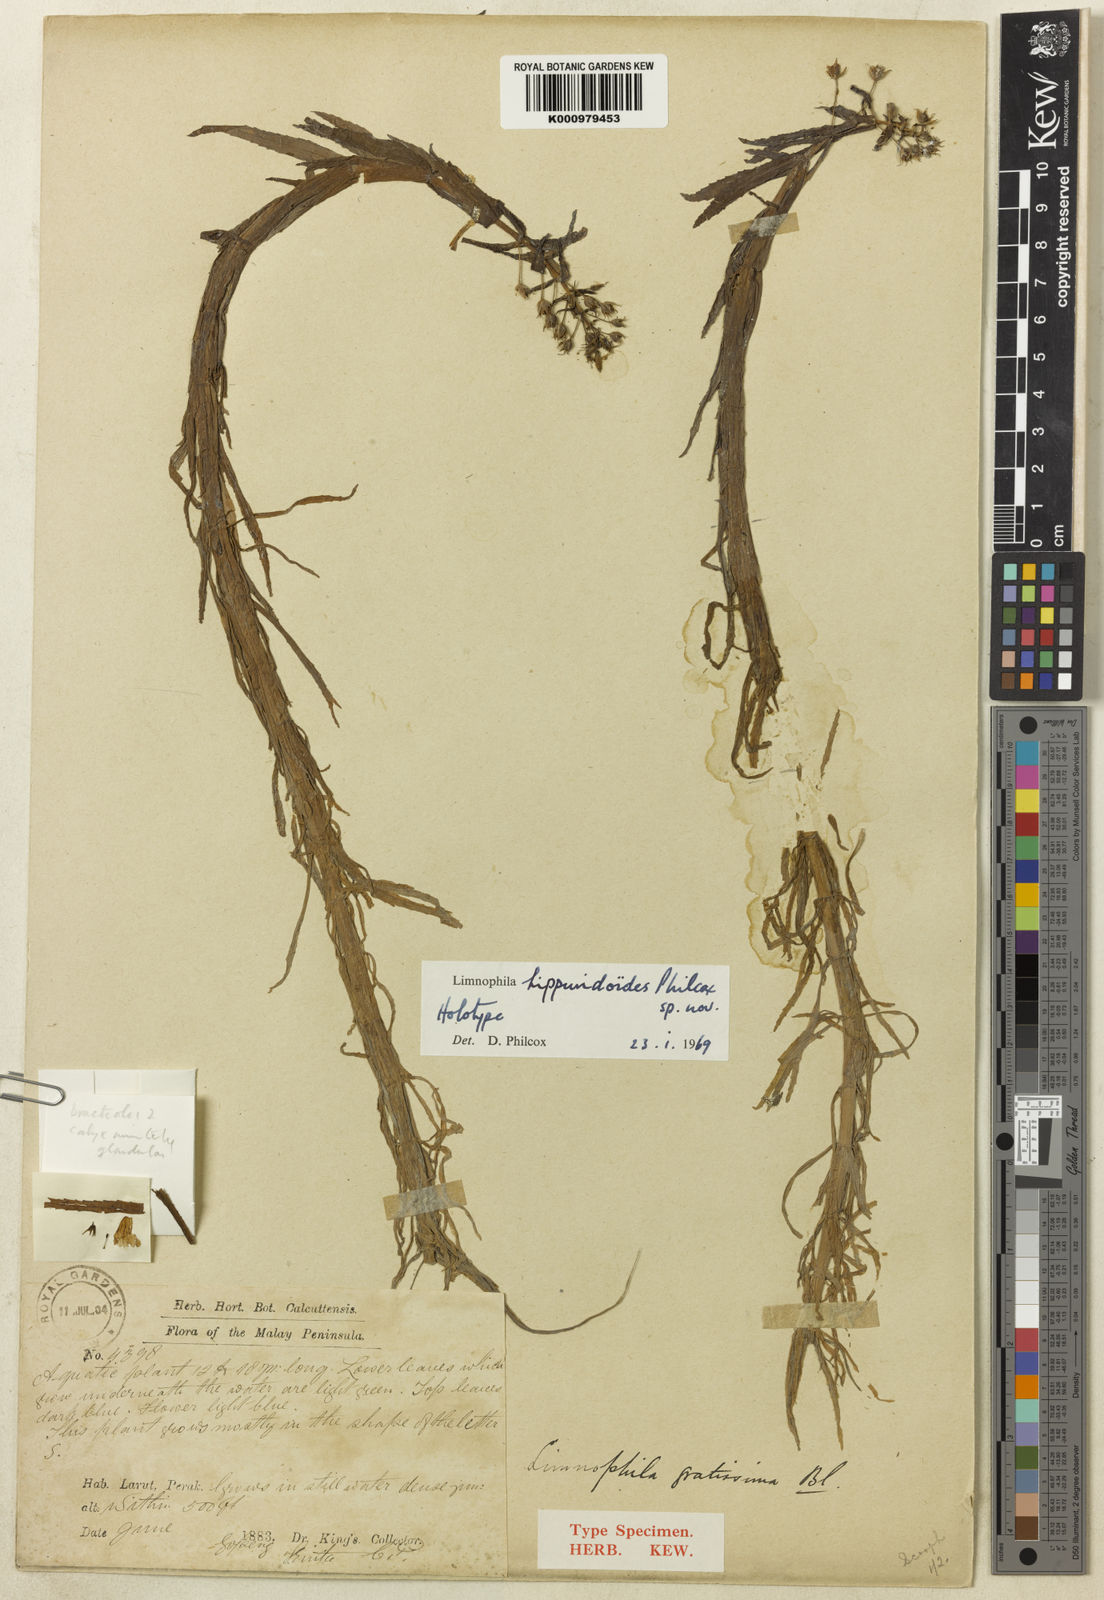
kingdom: Plantae
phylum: Tracheophyta
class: Magnoliopsida
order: Lamiales
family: Plantaginaceae
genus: Limnophila
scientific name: Limnophila hippuridoides
